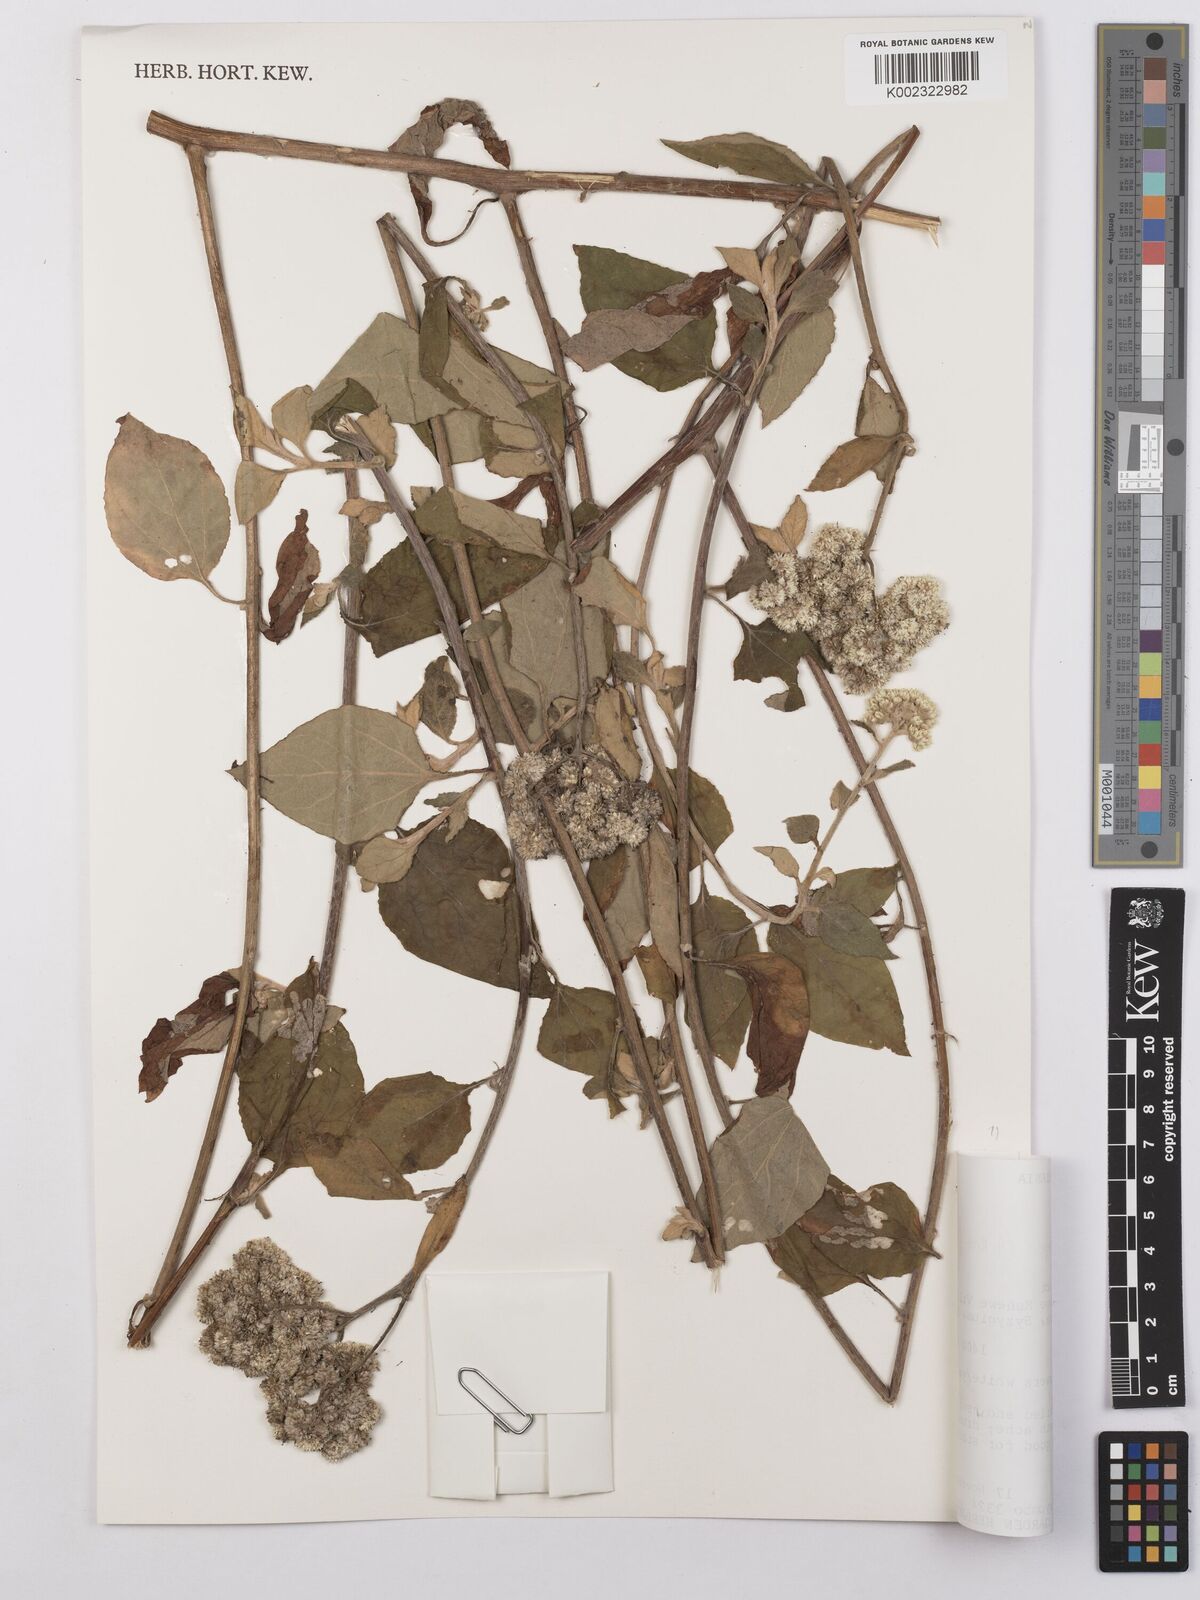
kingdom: Plantae
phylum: Tracheophyta
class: Magnoliopsida
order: Asterales
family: Asteraceae
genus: Helichrysum
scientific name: Helichrysum schimperi
